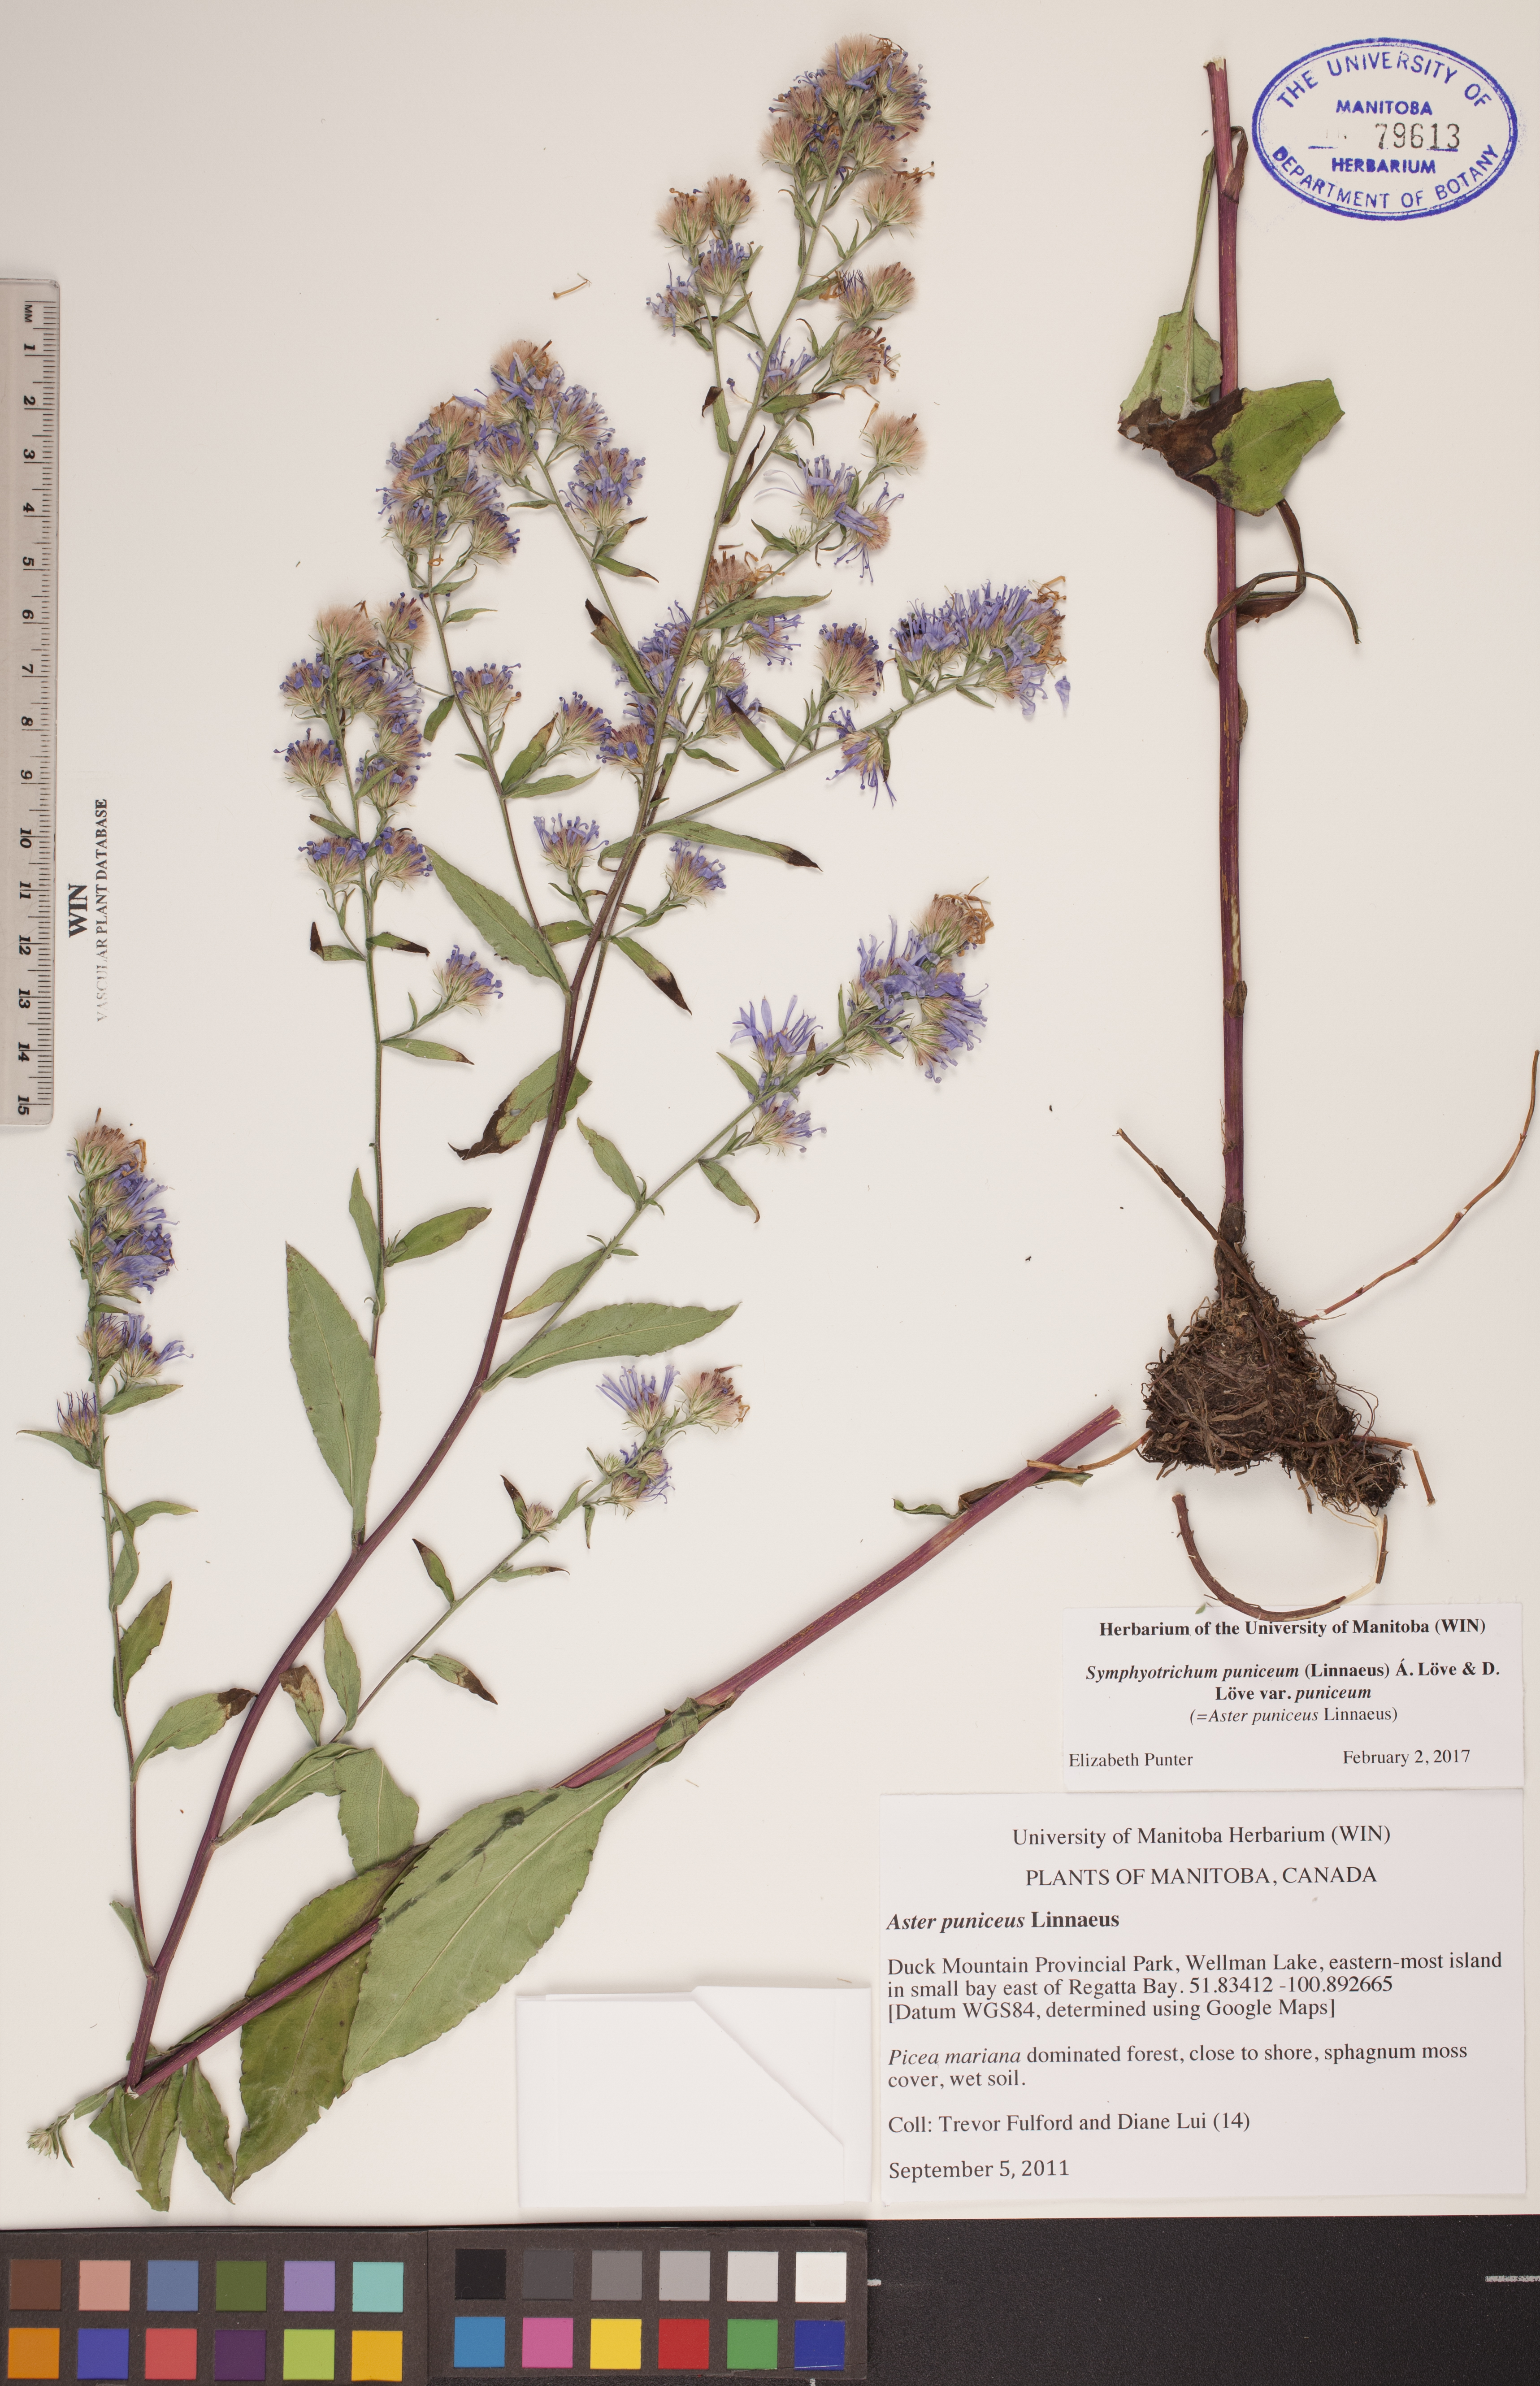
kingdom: Plantae
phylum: Tracheophyta
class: Magnoliopsida
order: Asterales
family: Asteraceae
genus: Symphyotrichum
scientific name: Symphyotrichum puniceum
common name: Bog aster
